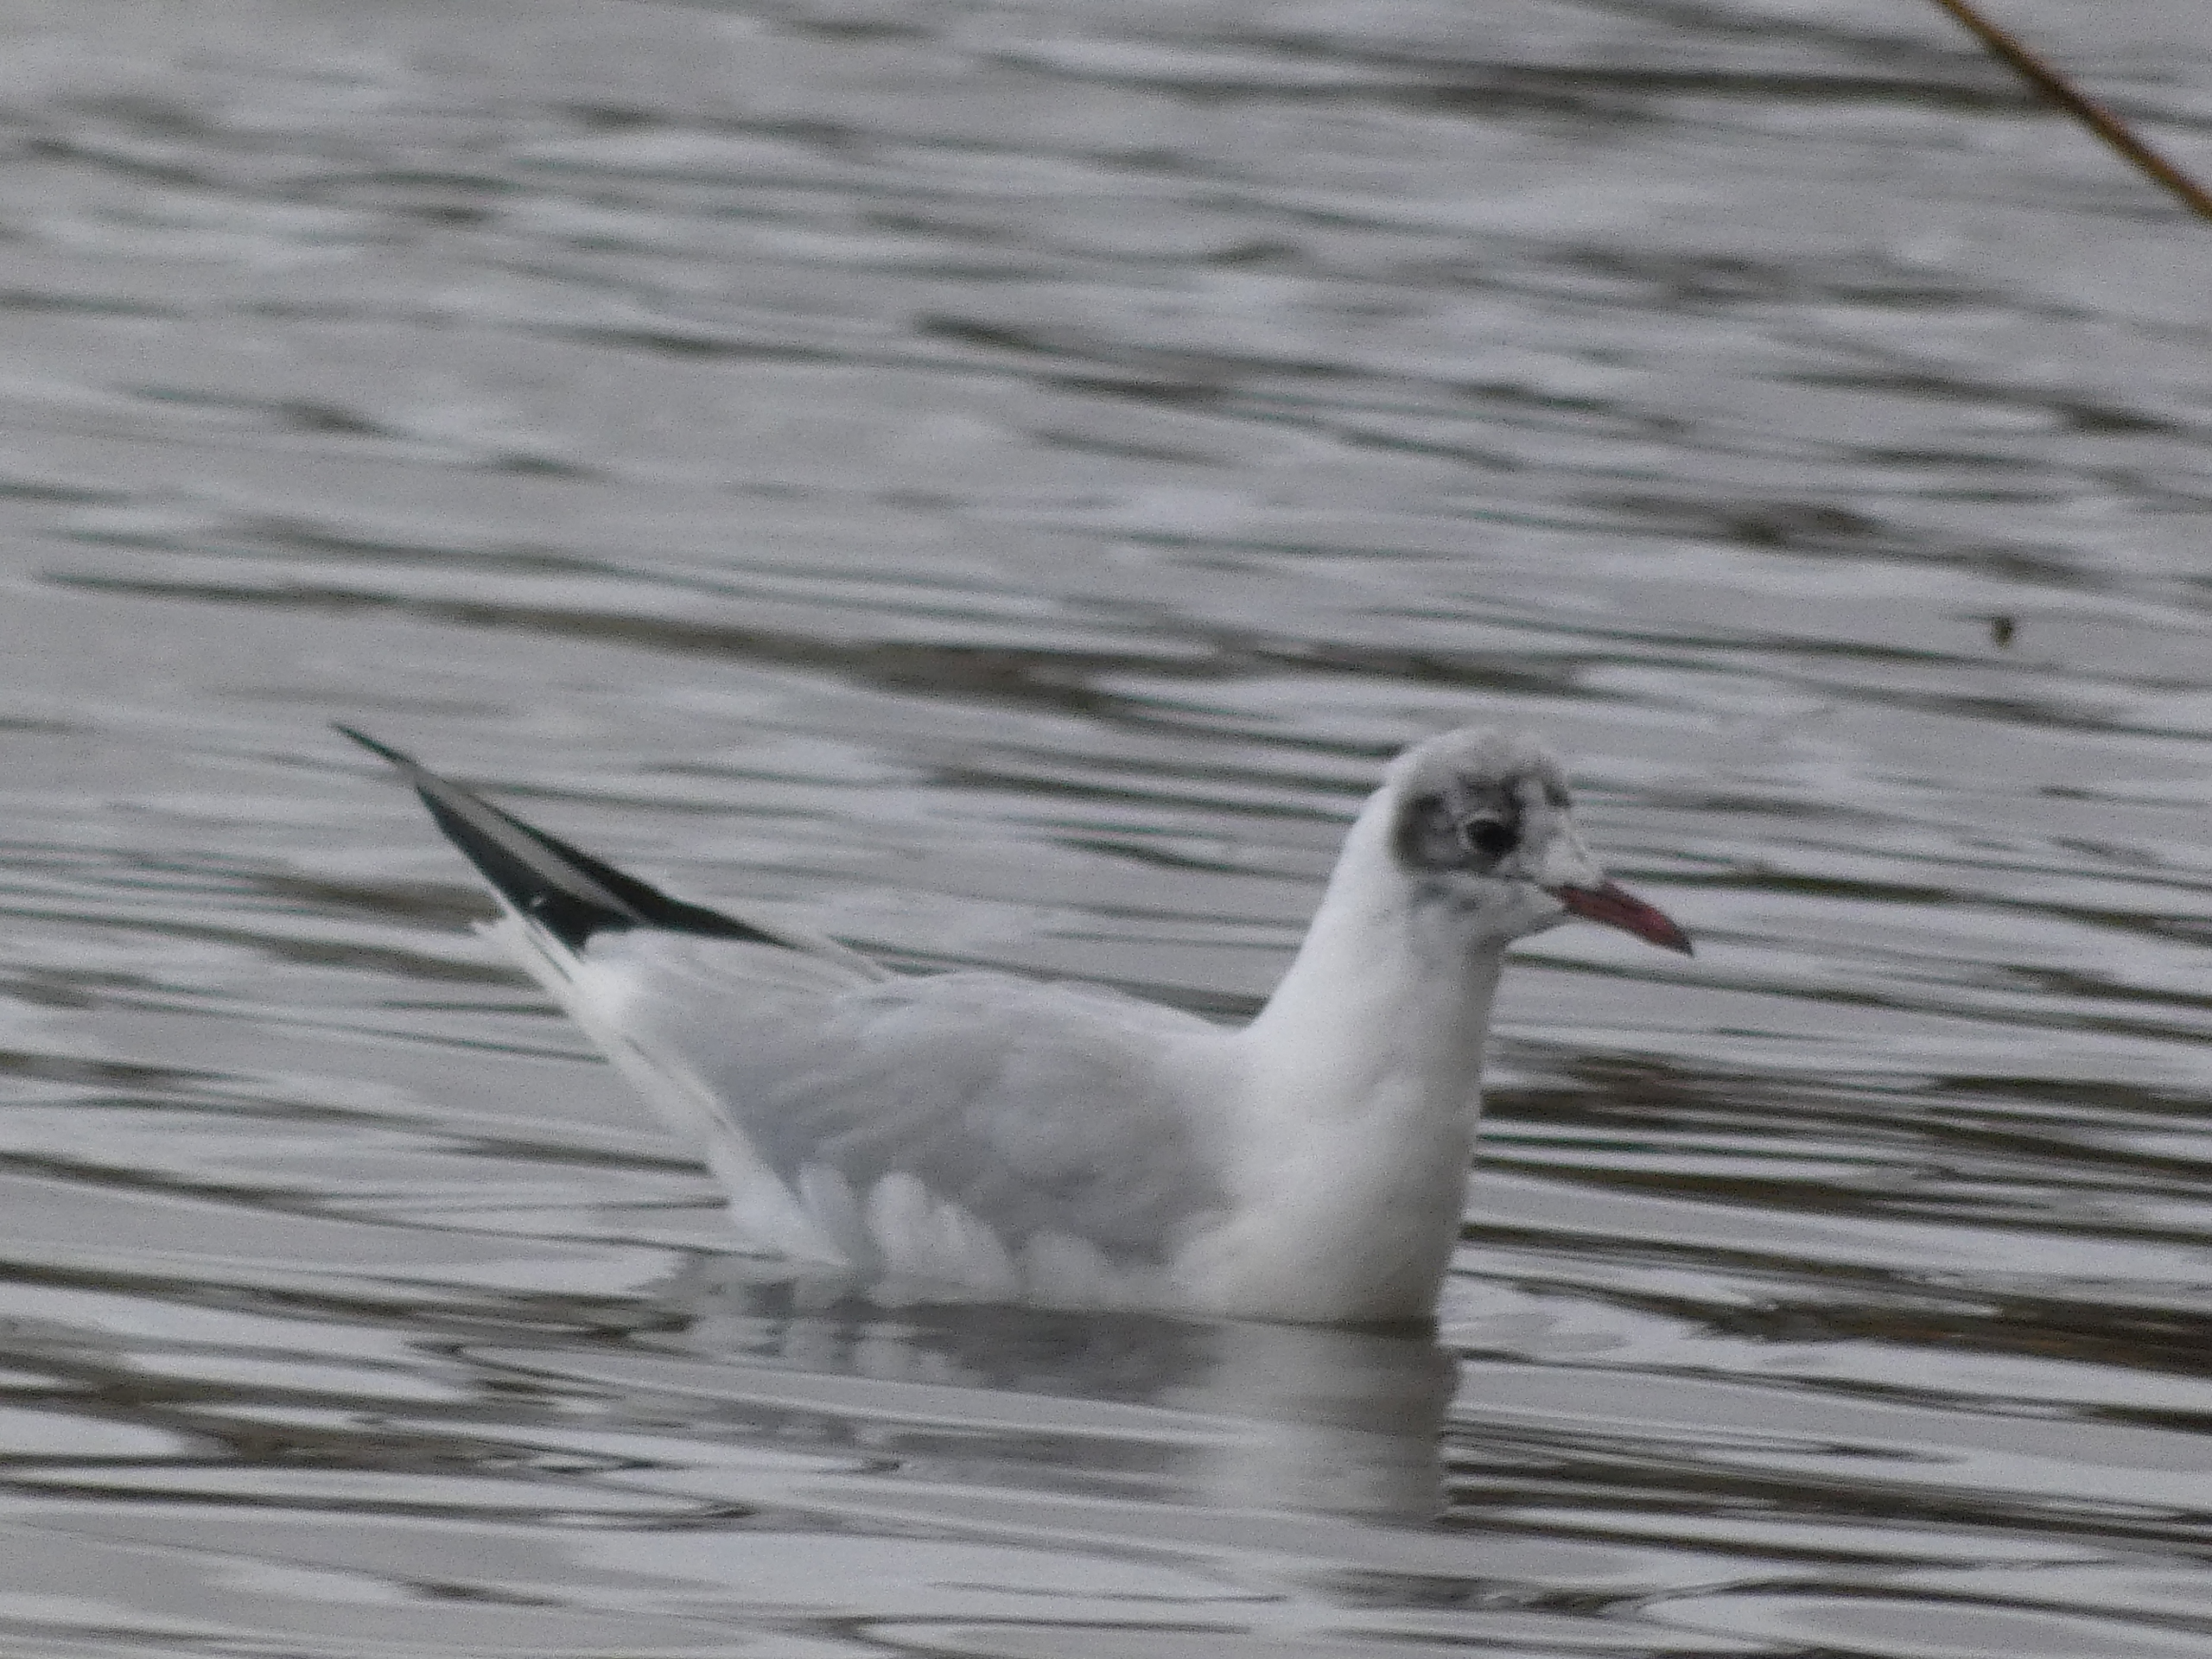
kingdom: Animalia
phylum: Chordata
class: Aves
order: Charadriiformes
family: Laridae
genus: Chroicocephalus
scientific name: Chroicocephalus ridibundus
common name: Hættemåge
